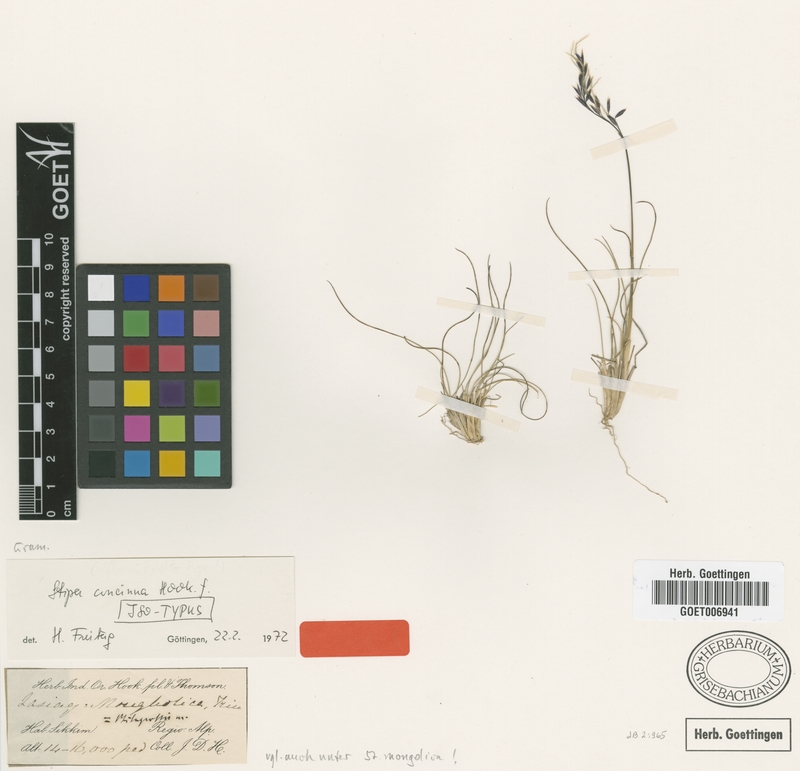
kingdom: Plantae
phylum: Tracheophyta
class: Liliopsida
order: Poales
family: Poaceae
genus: Ptilagrostis
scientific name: Ptilagrostis concinna
